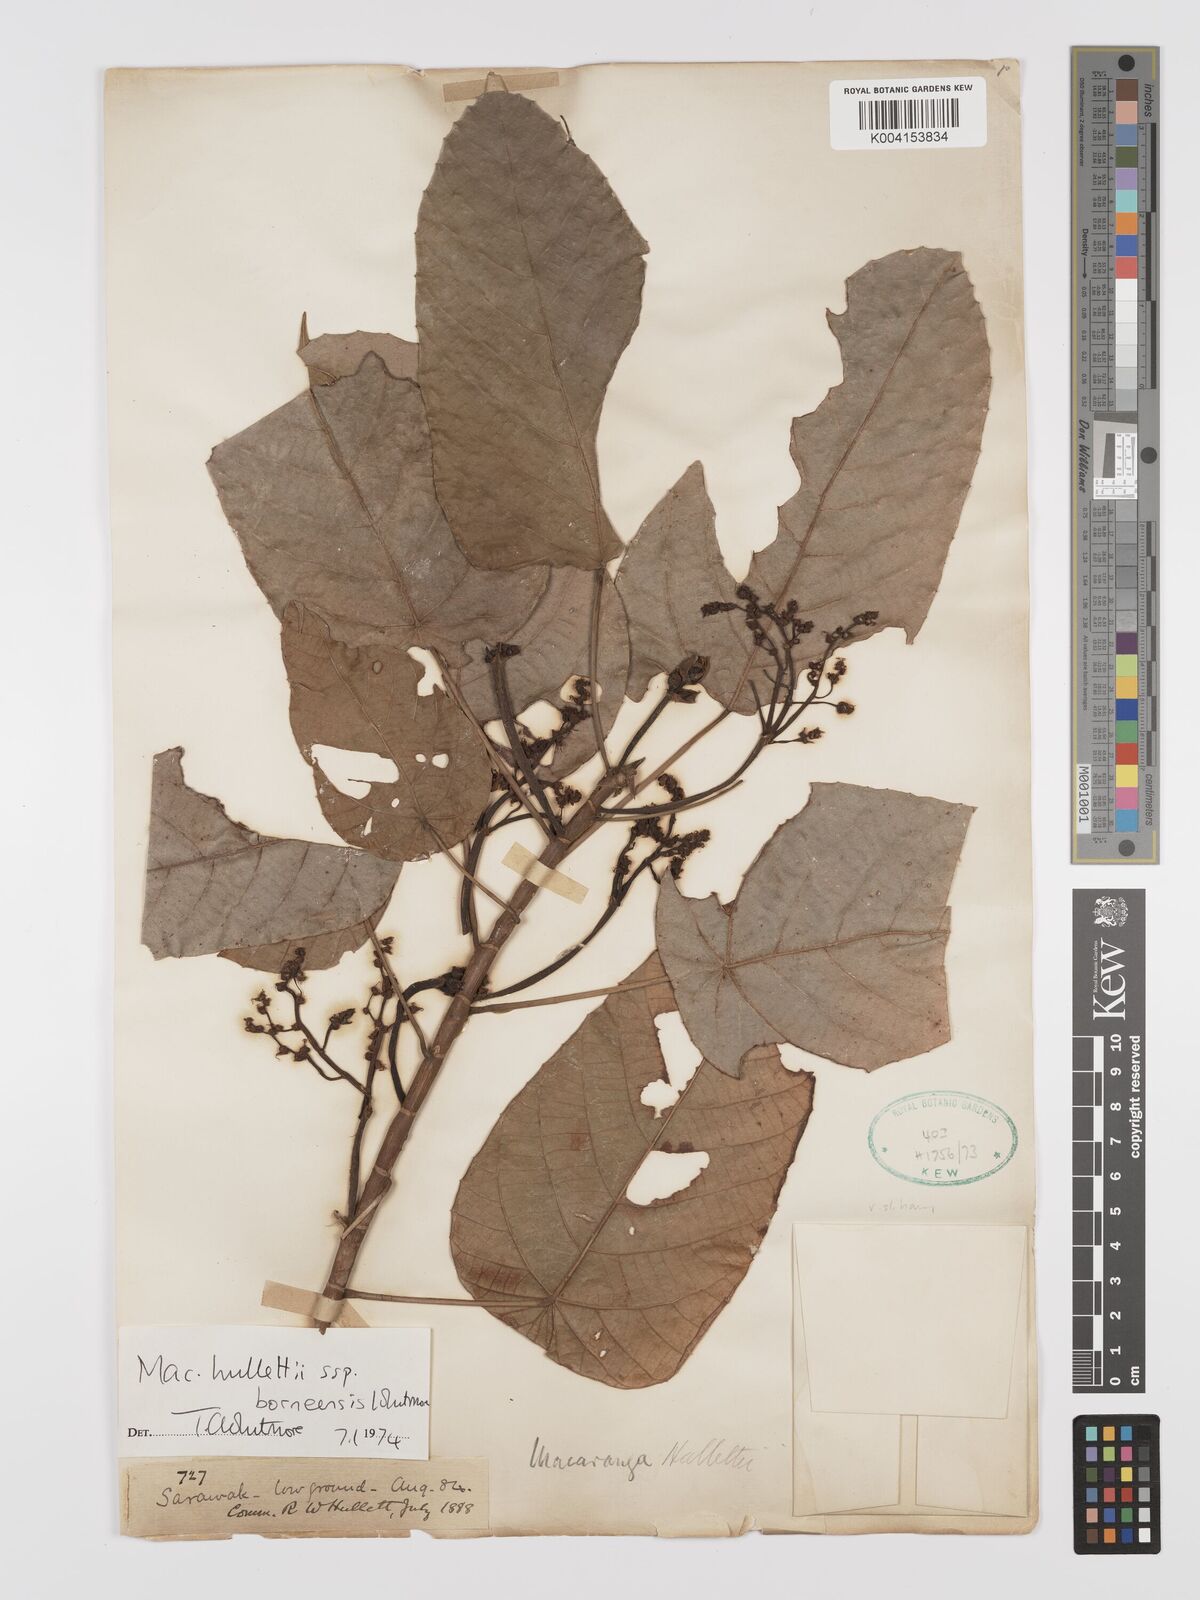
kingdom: Plantae
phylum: Tracheophyta
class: Magnoliopsida
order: Malpighiales
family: Euphorbiaceae
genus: Macaranga
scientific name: Macaranga hullettii
